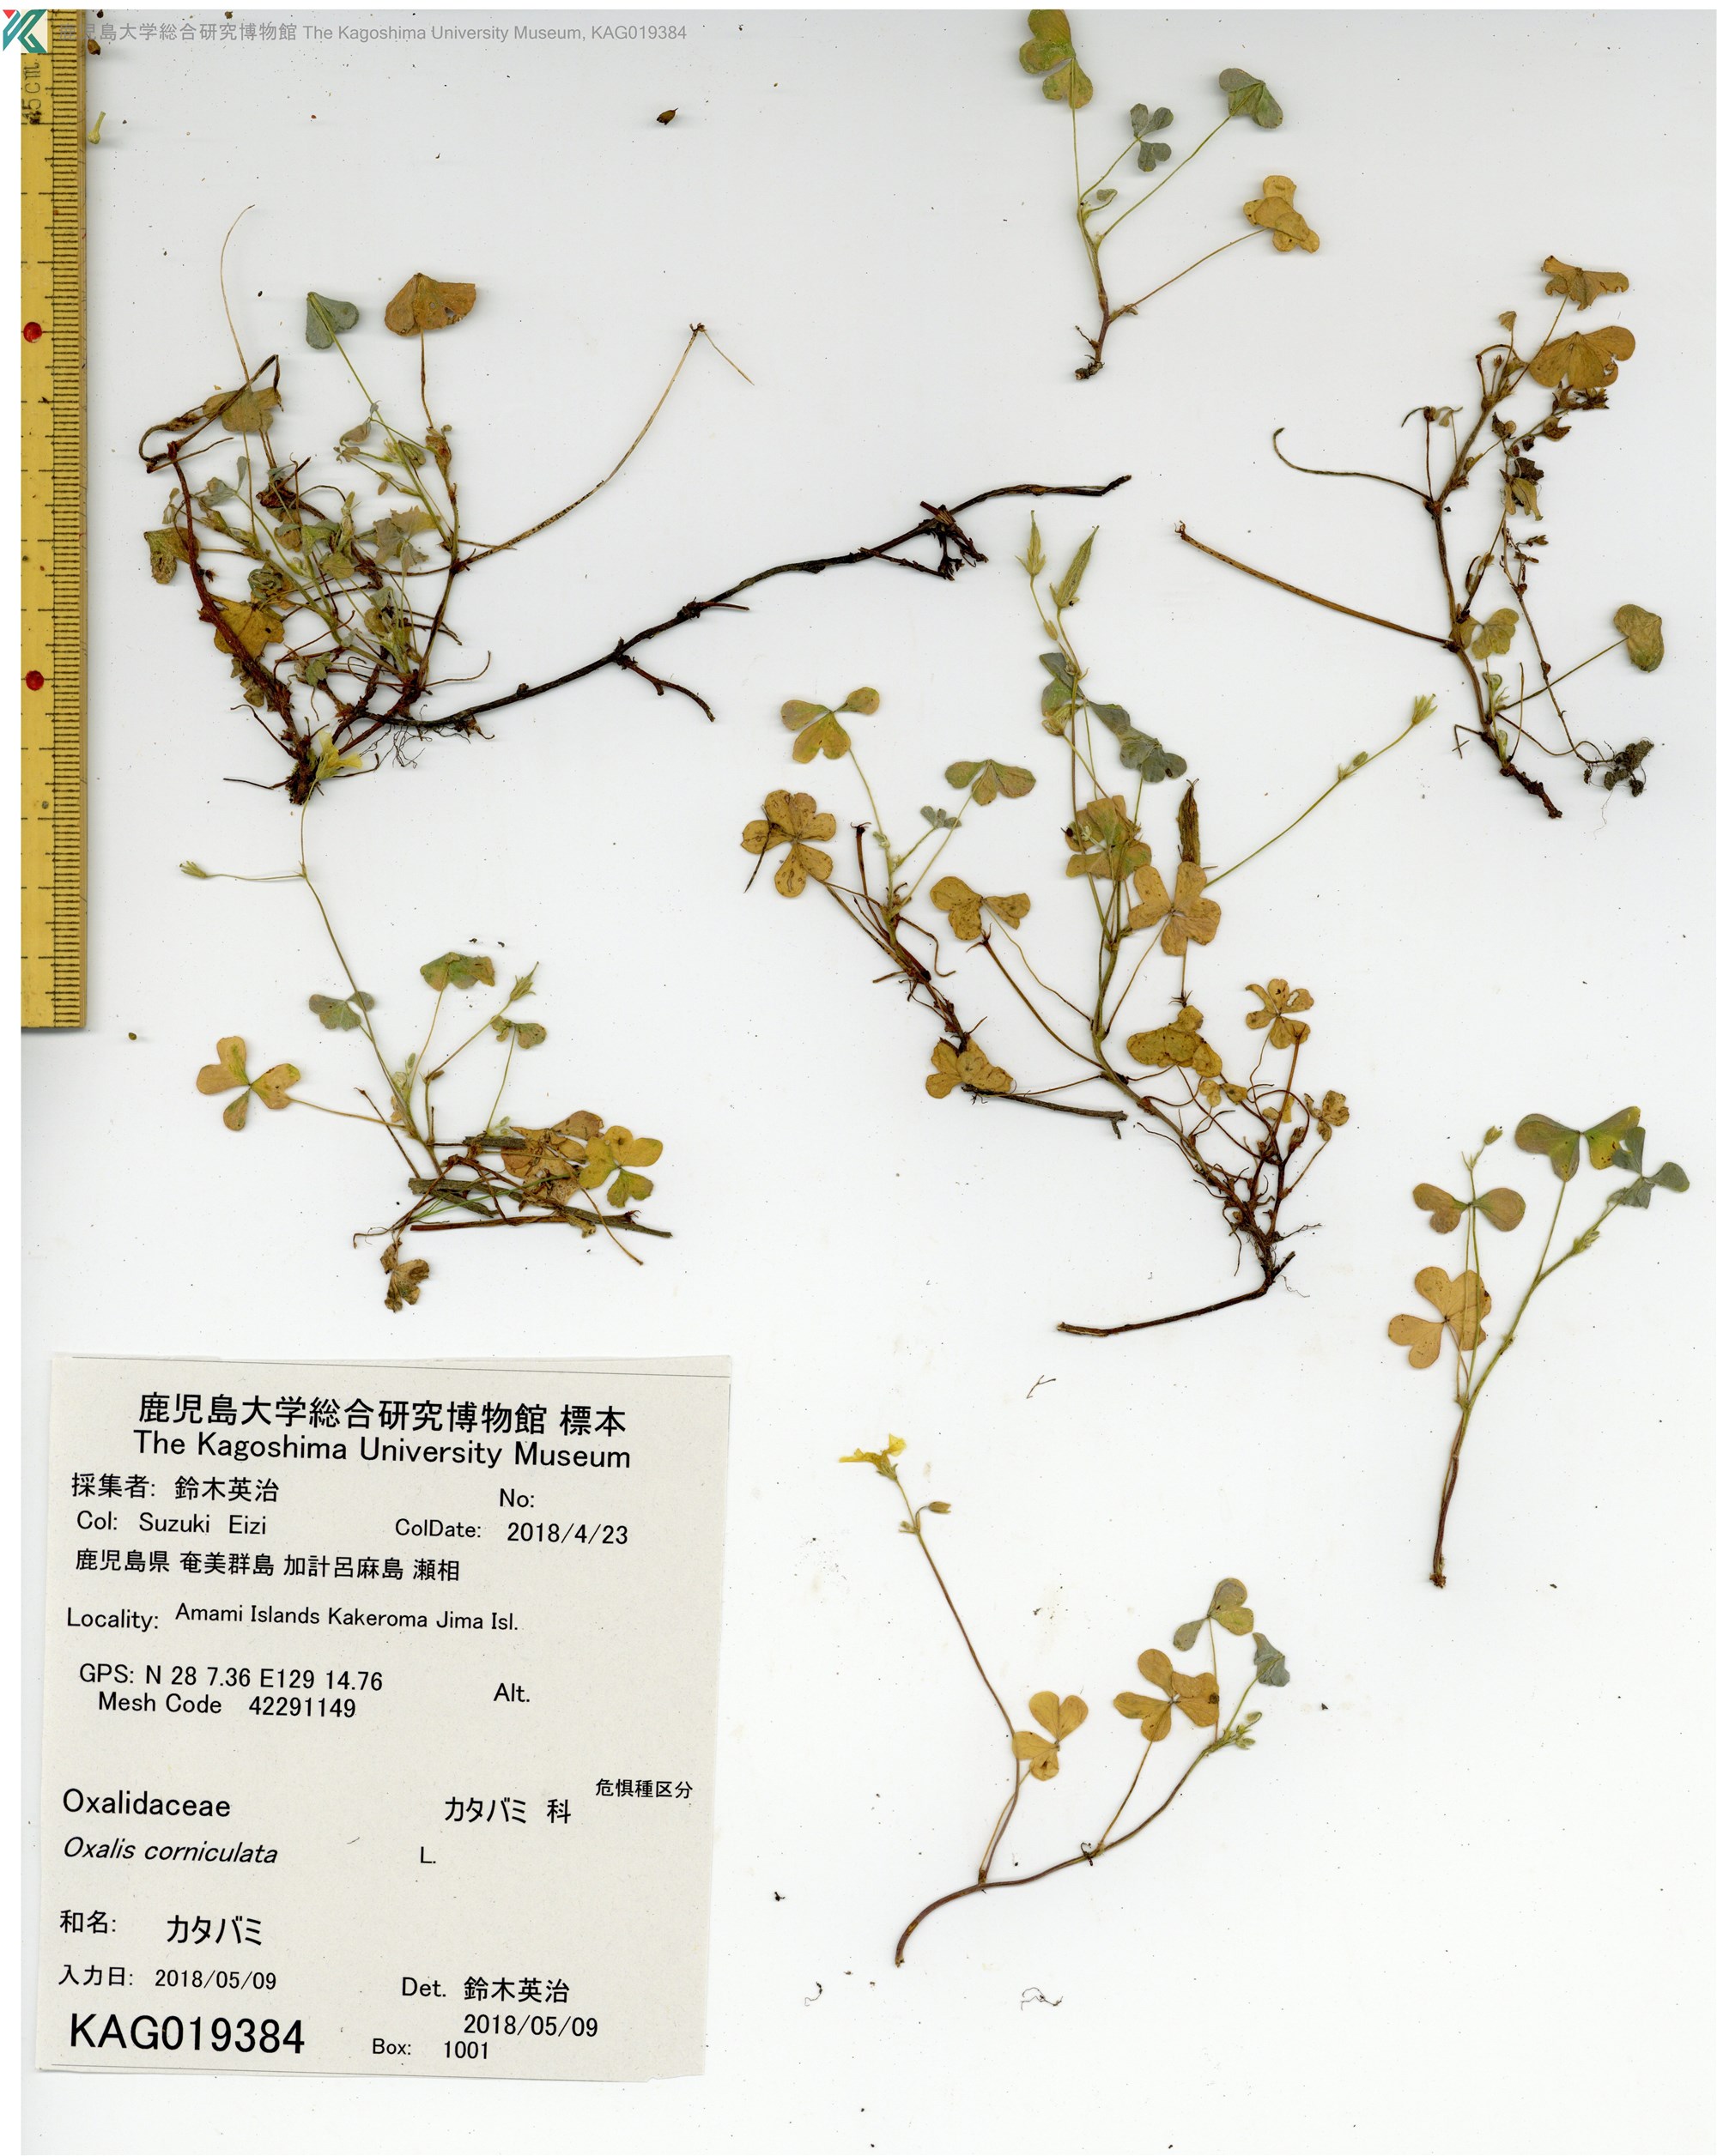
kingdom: Plantae
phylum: Tracheophyta
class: Magnoliopsida
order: Oxalidales
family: Oxalidaceae
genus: Oxalis
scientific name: Oxalis corniculata
